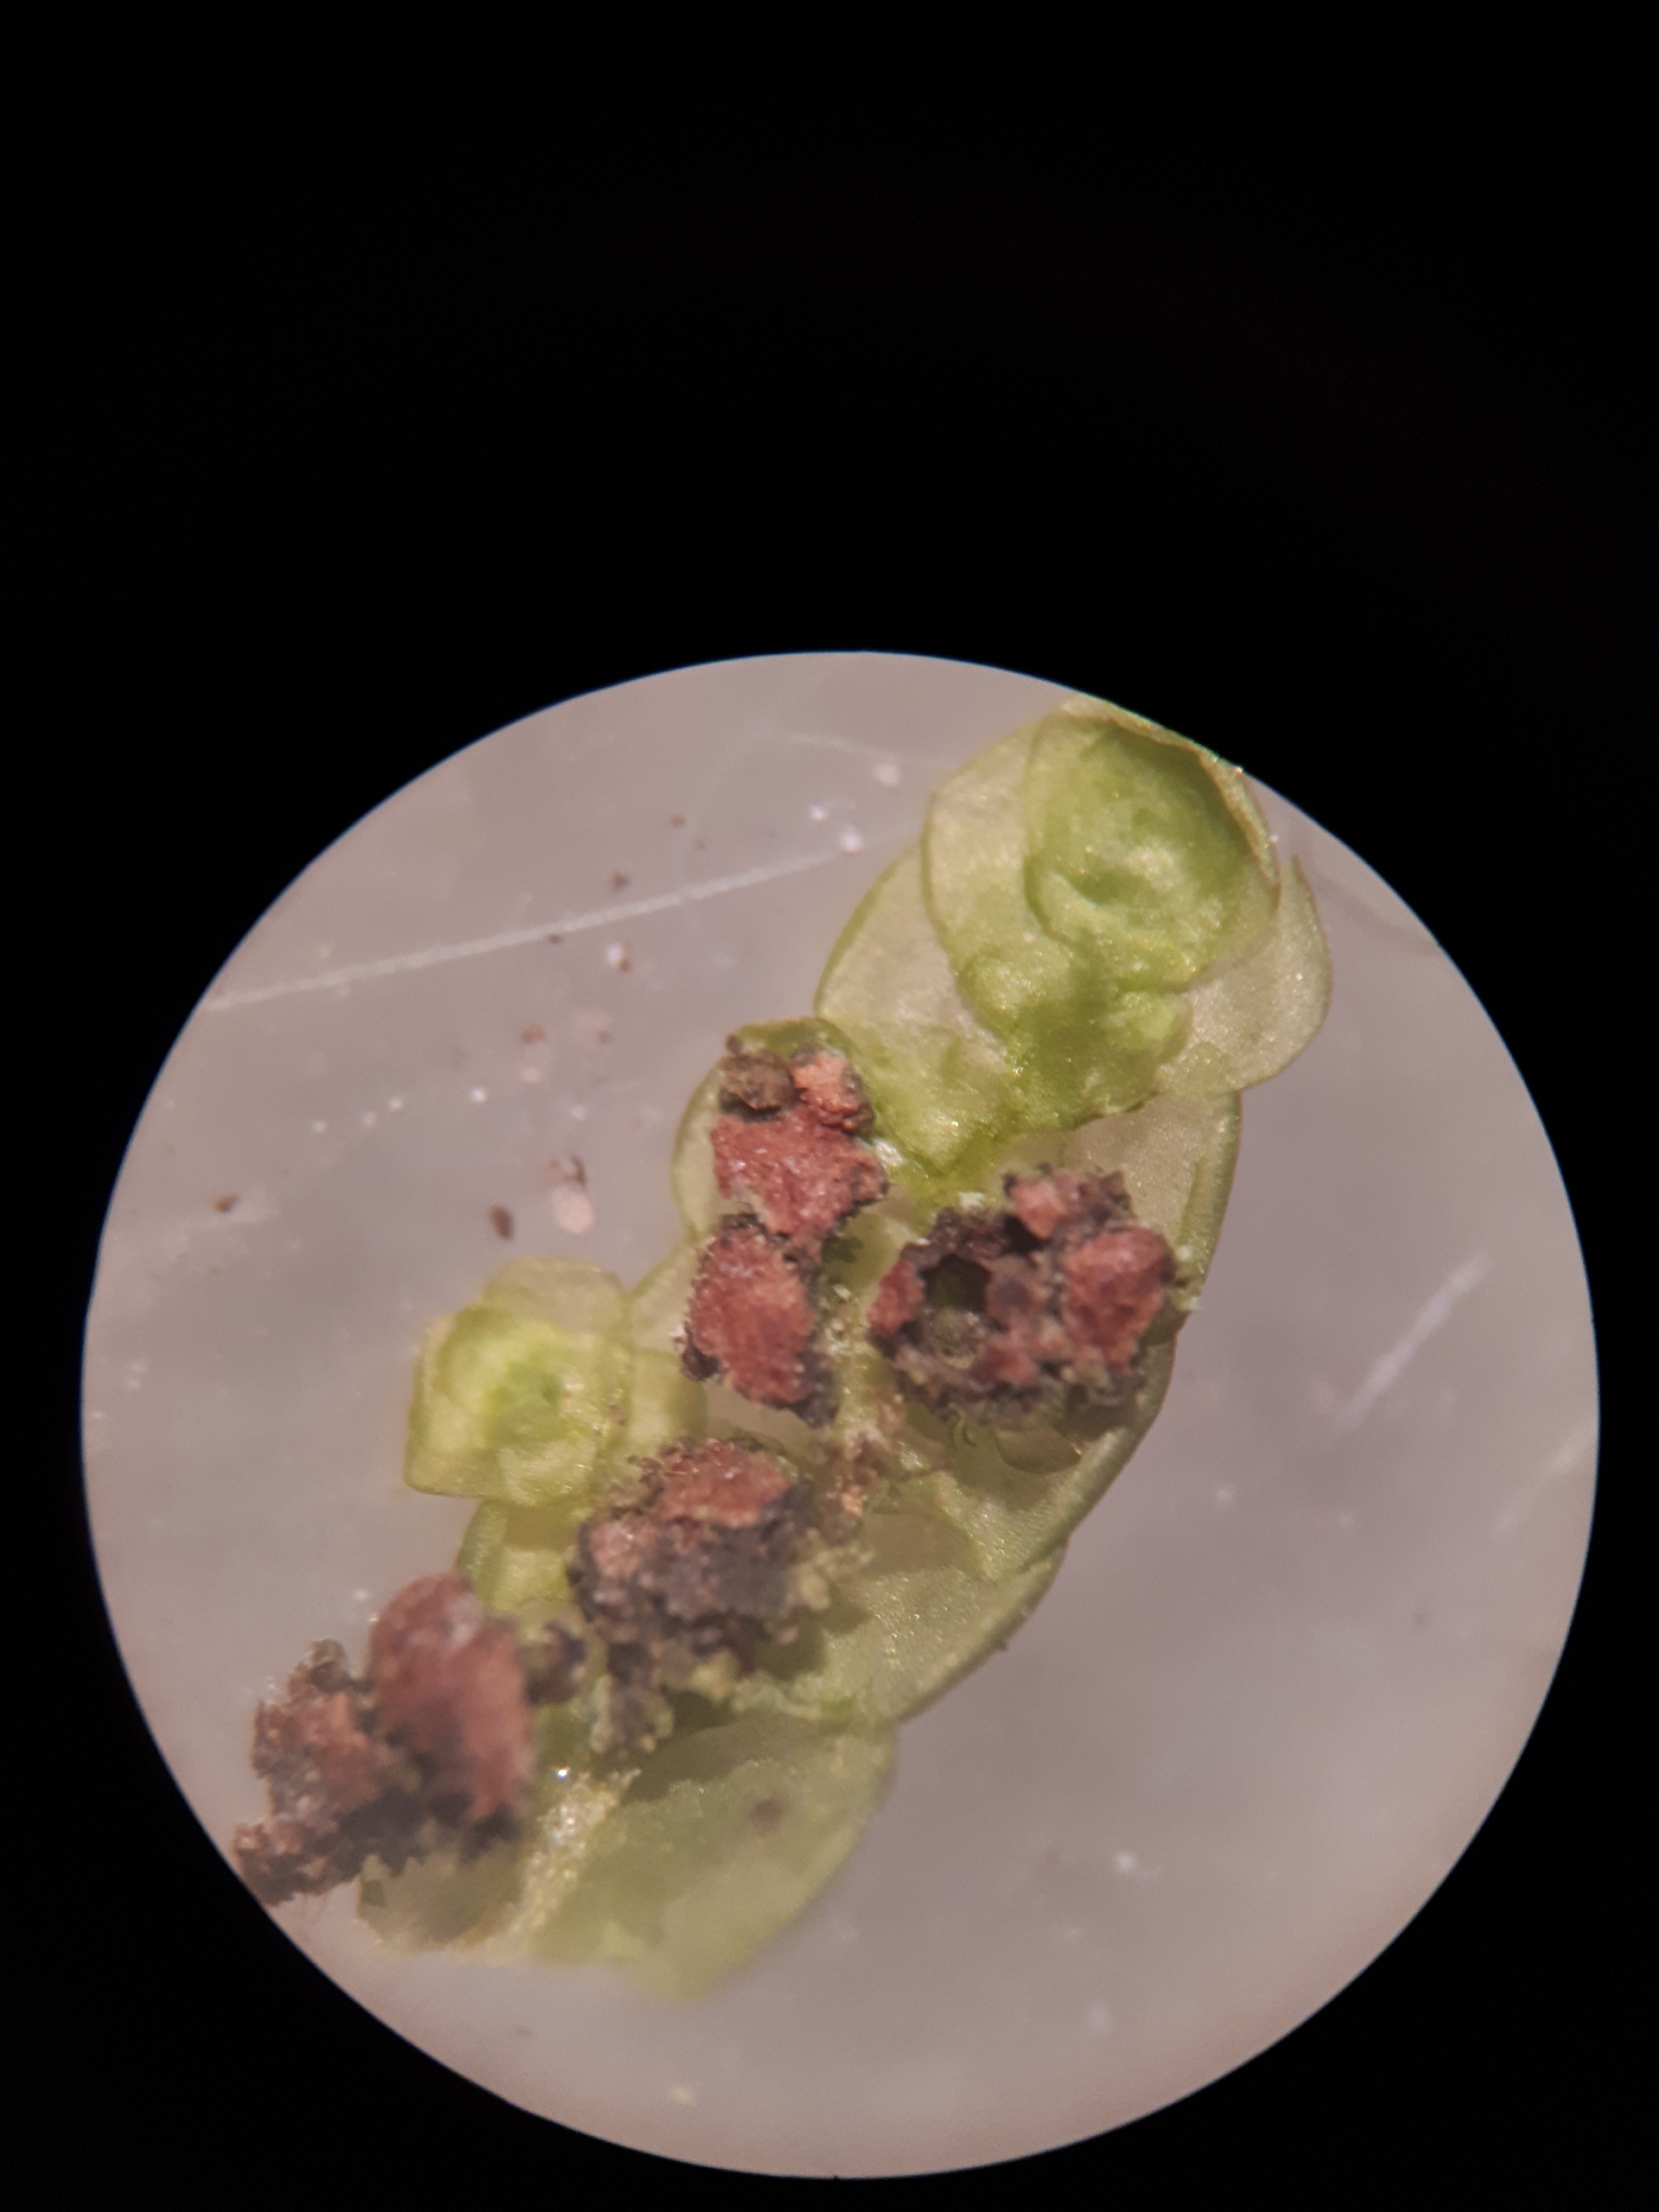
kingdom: Plantae
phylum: Marchantiophyta
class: Jungermanniopsida
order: Porellales
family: Radulaceae
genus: Radula
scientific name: Radula complanata
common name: Almindelig spartelmos
